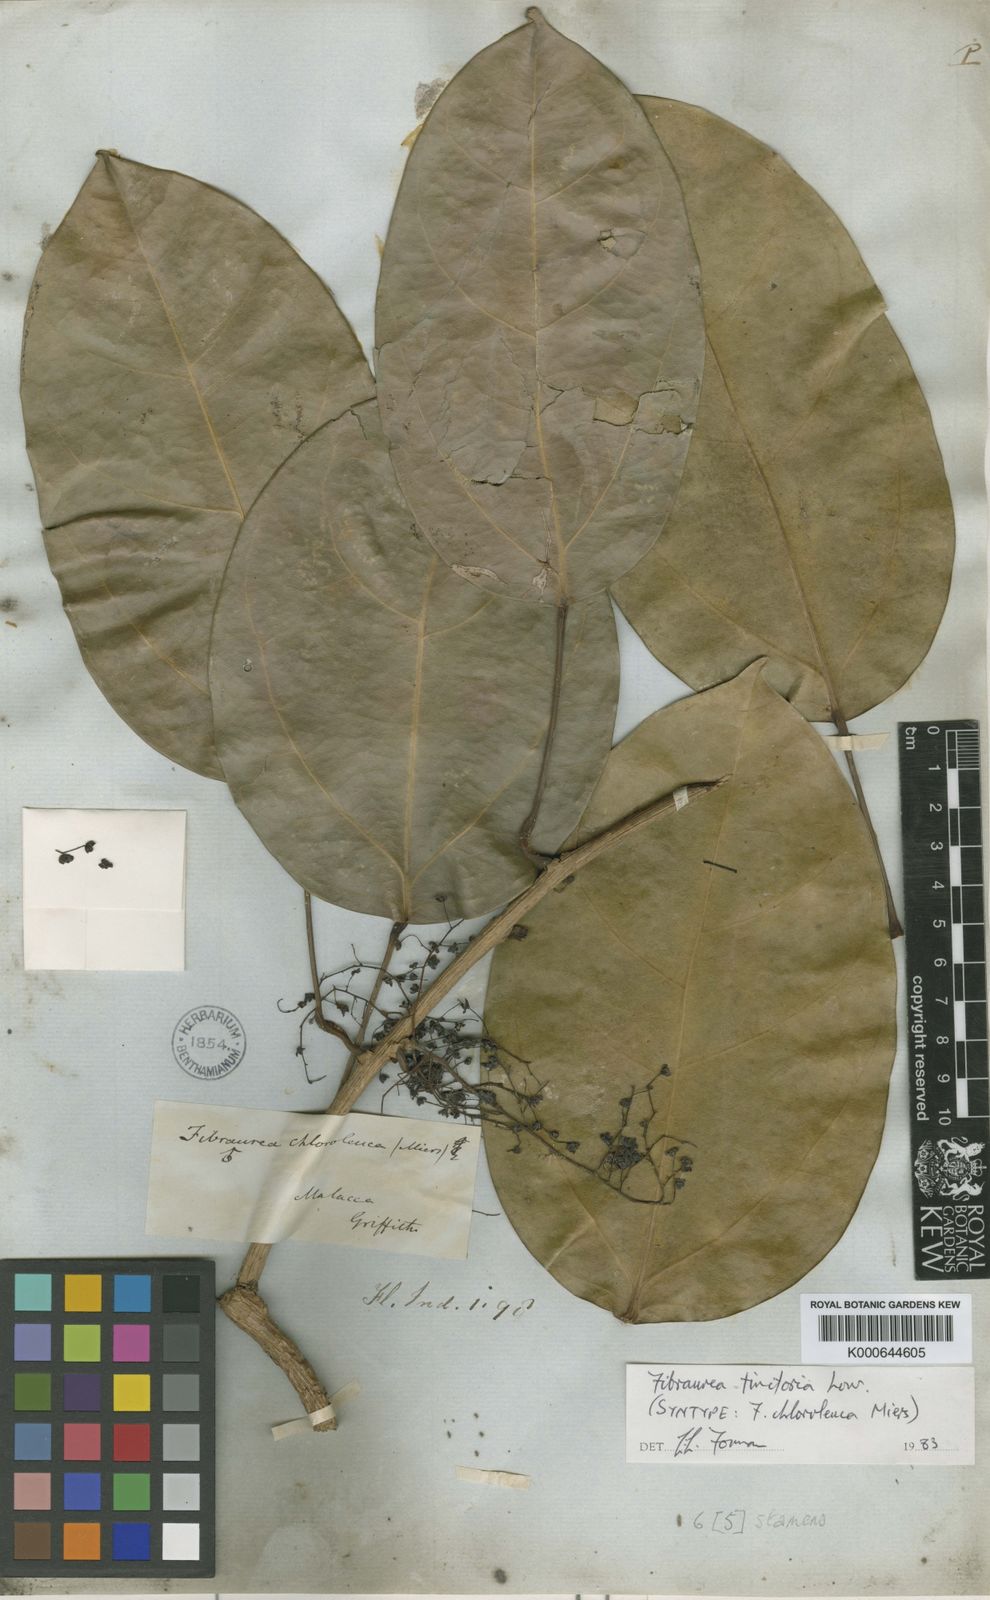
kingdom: Plantae
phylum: Tracheophyta
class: Magnoliopsida
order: Ranunculales
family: Menispermaceae
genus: Fibraurea
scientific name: Fibraurea tinctoria
